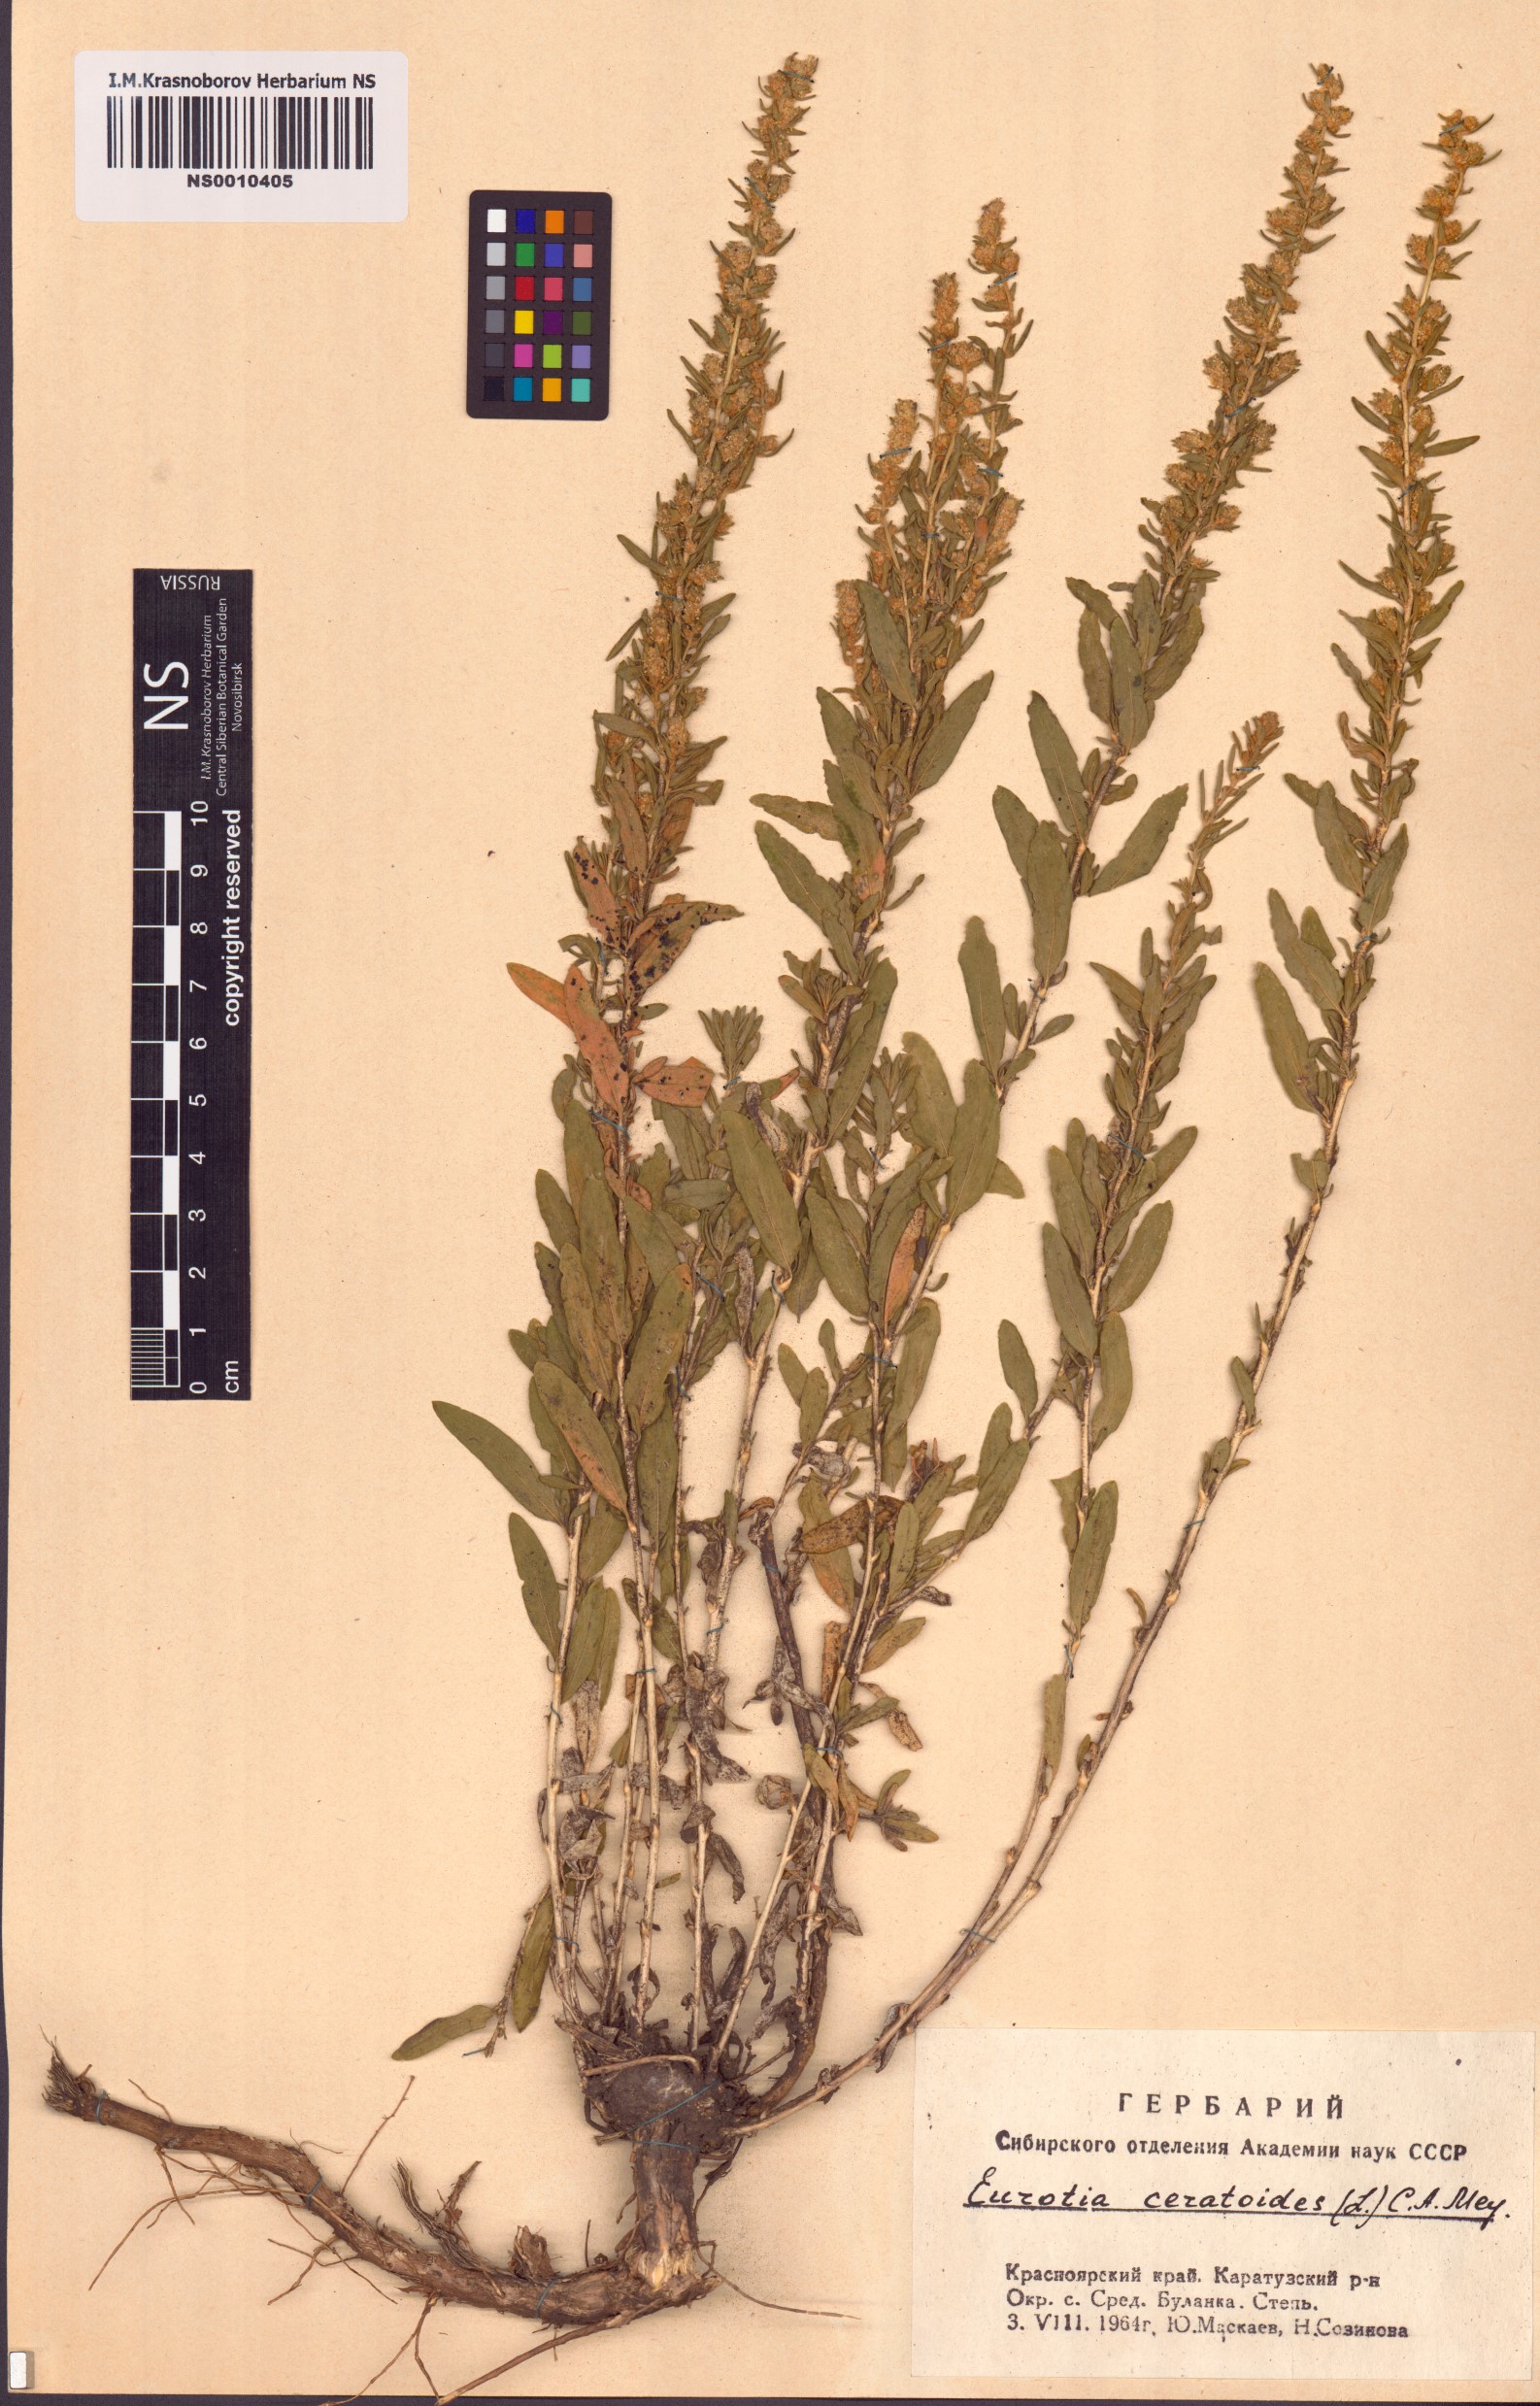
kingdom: Plantae
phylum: Tracheophyta
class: Magnoliopsida
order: Caryophyllales
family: Amaranthaceae
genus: Krascheninnikovia
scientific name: Krascheninnikovia ceratoides
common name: Pamirian winterfat
